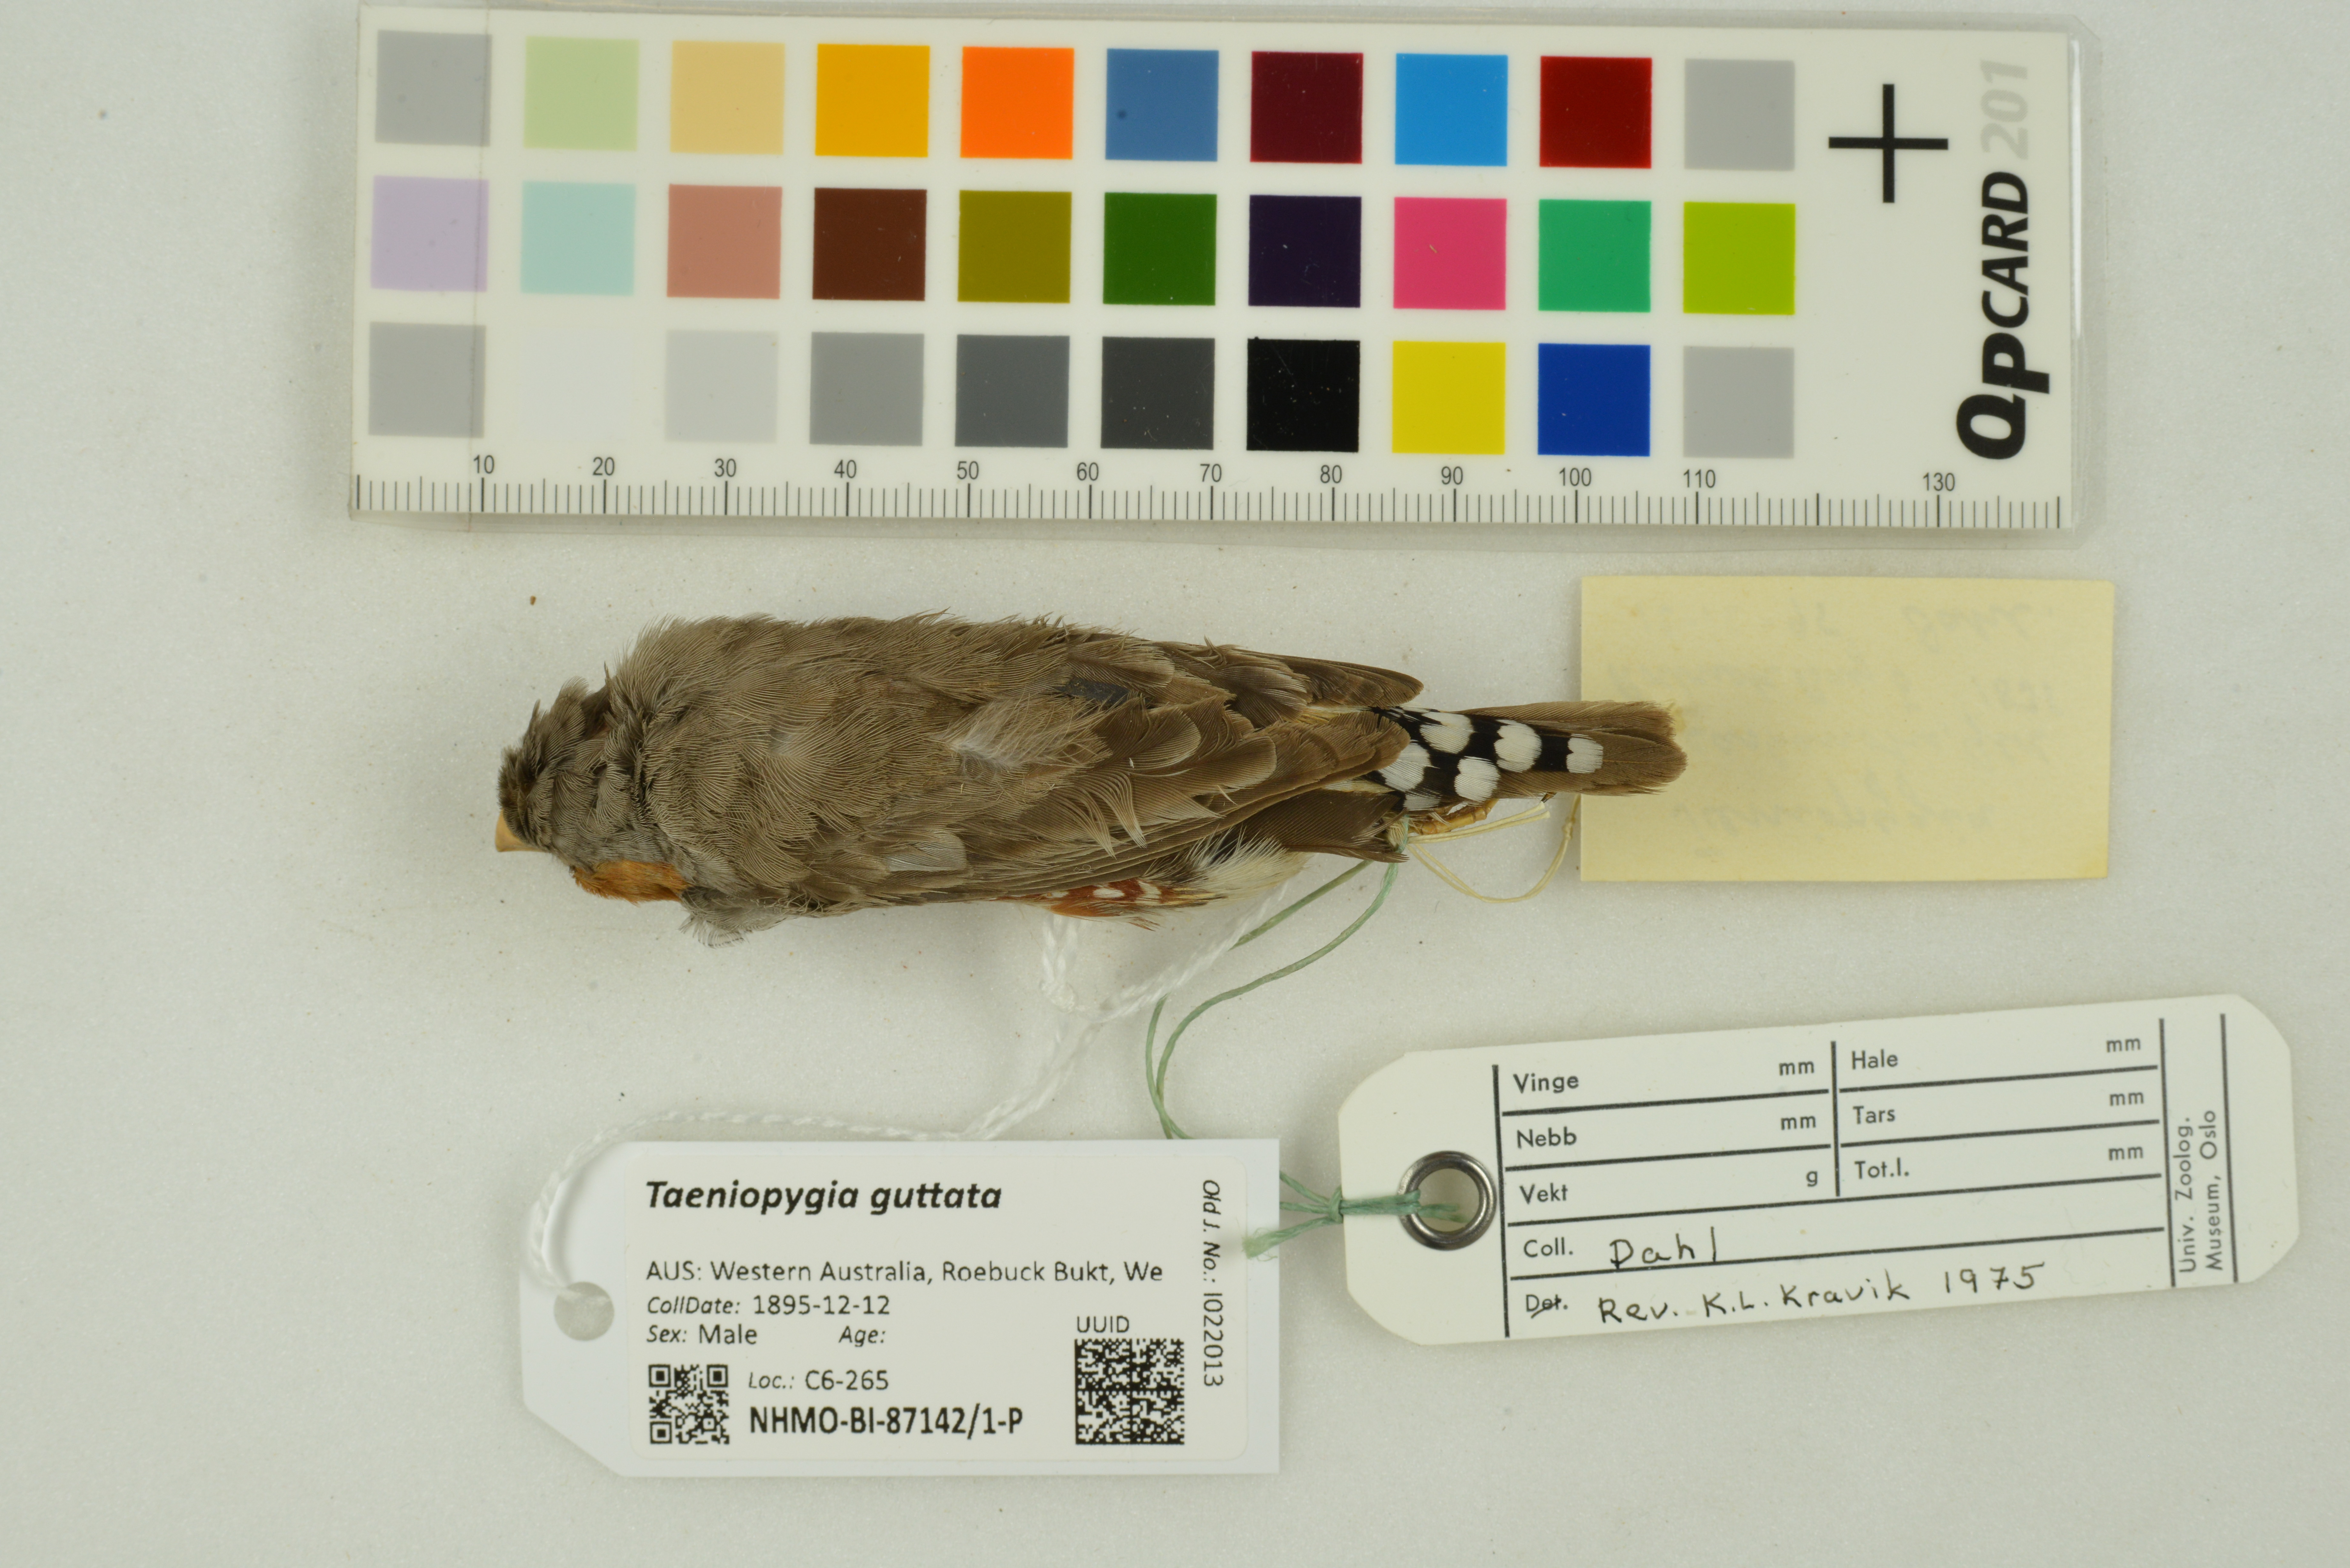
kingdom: Animalia
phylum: Chordata
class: Aves
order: Passeriformes
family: Estrildidae
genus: Taeniopygia
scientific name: Taeniopygia guttata
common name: Zebra finch
